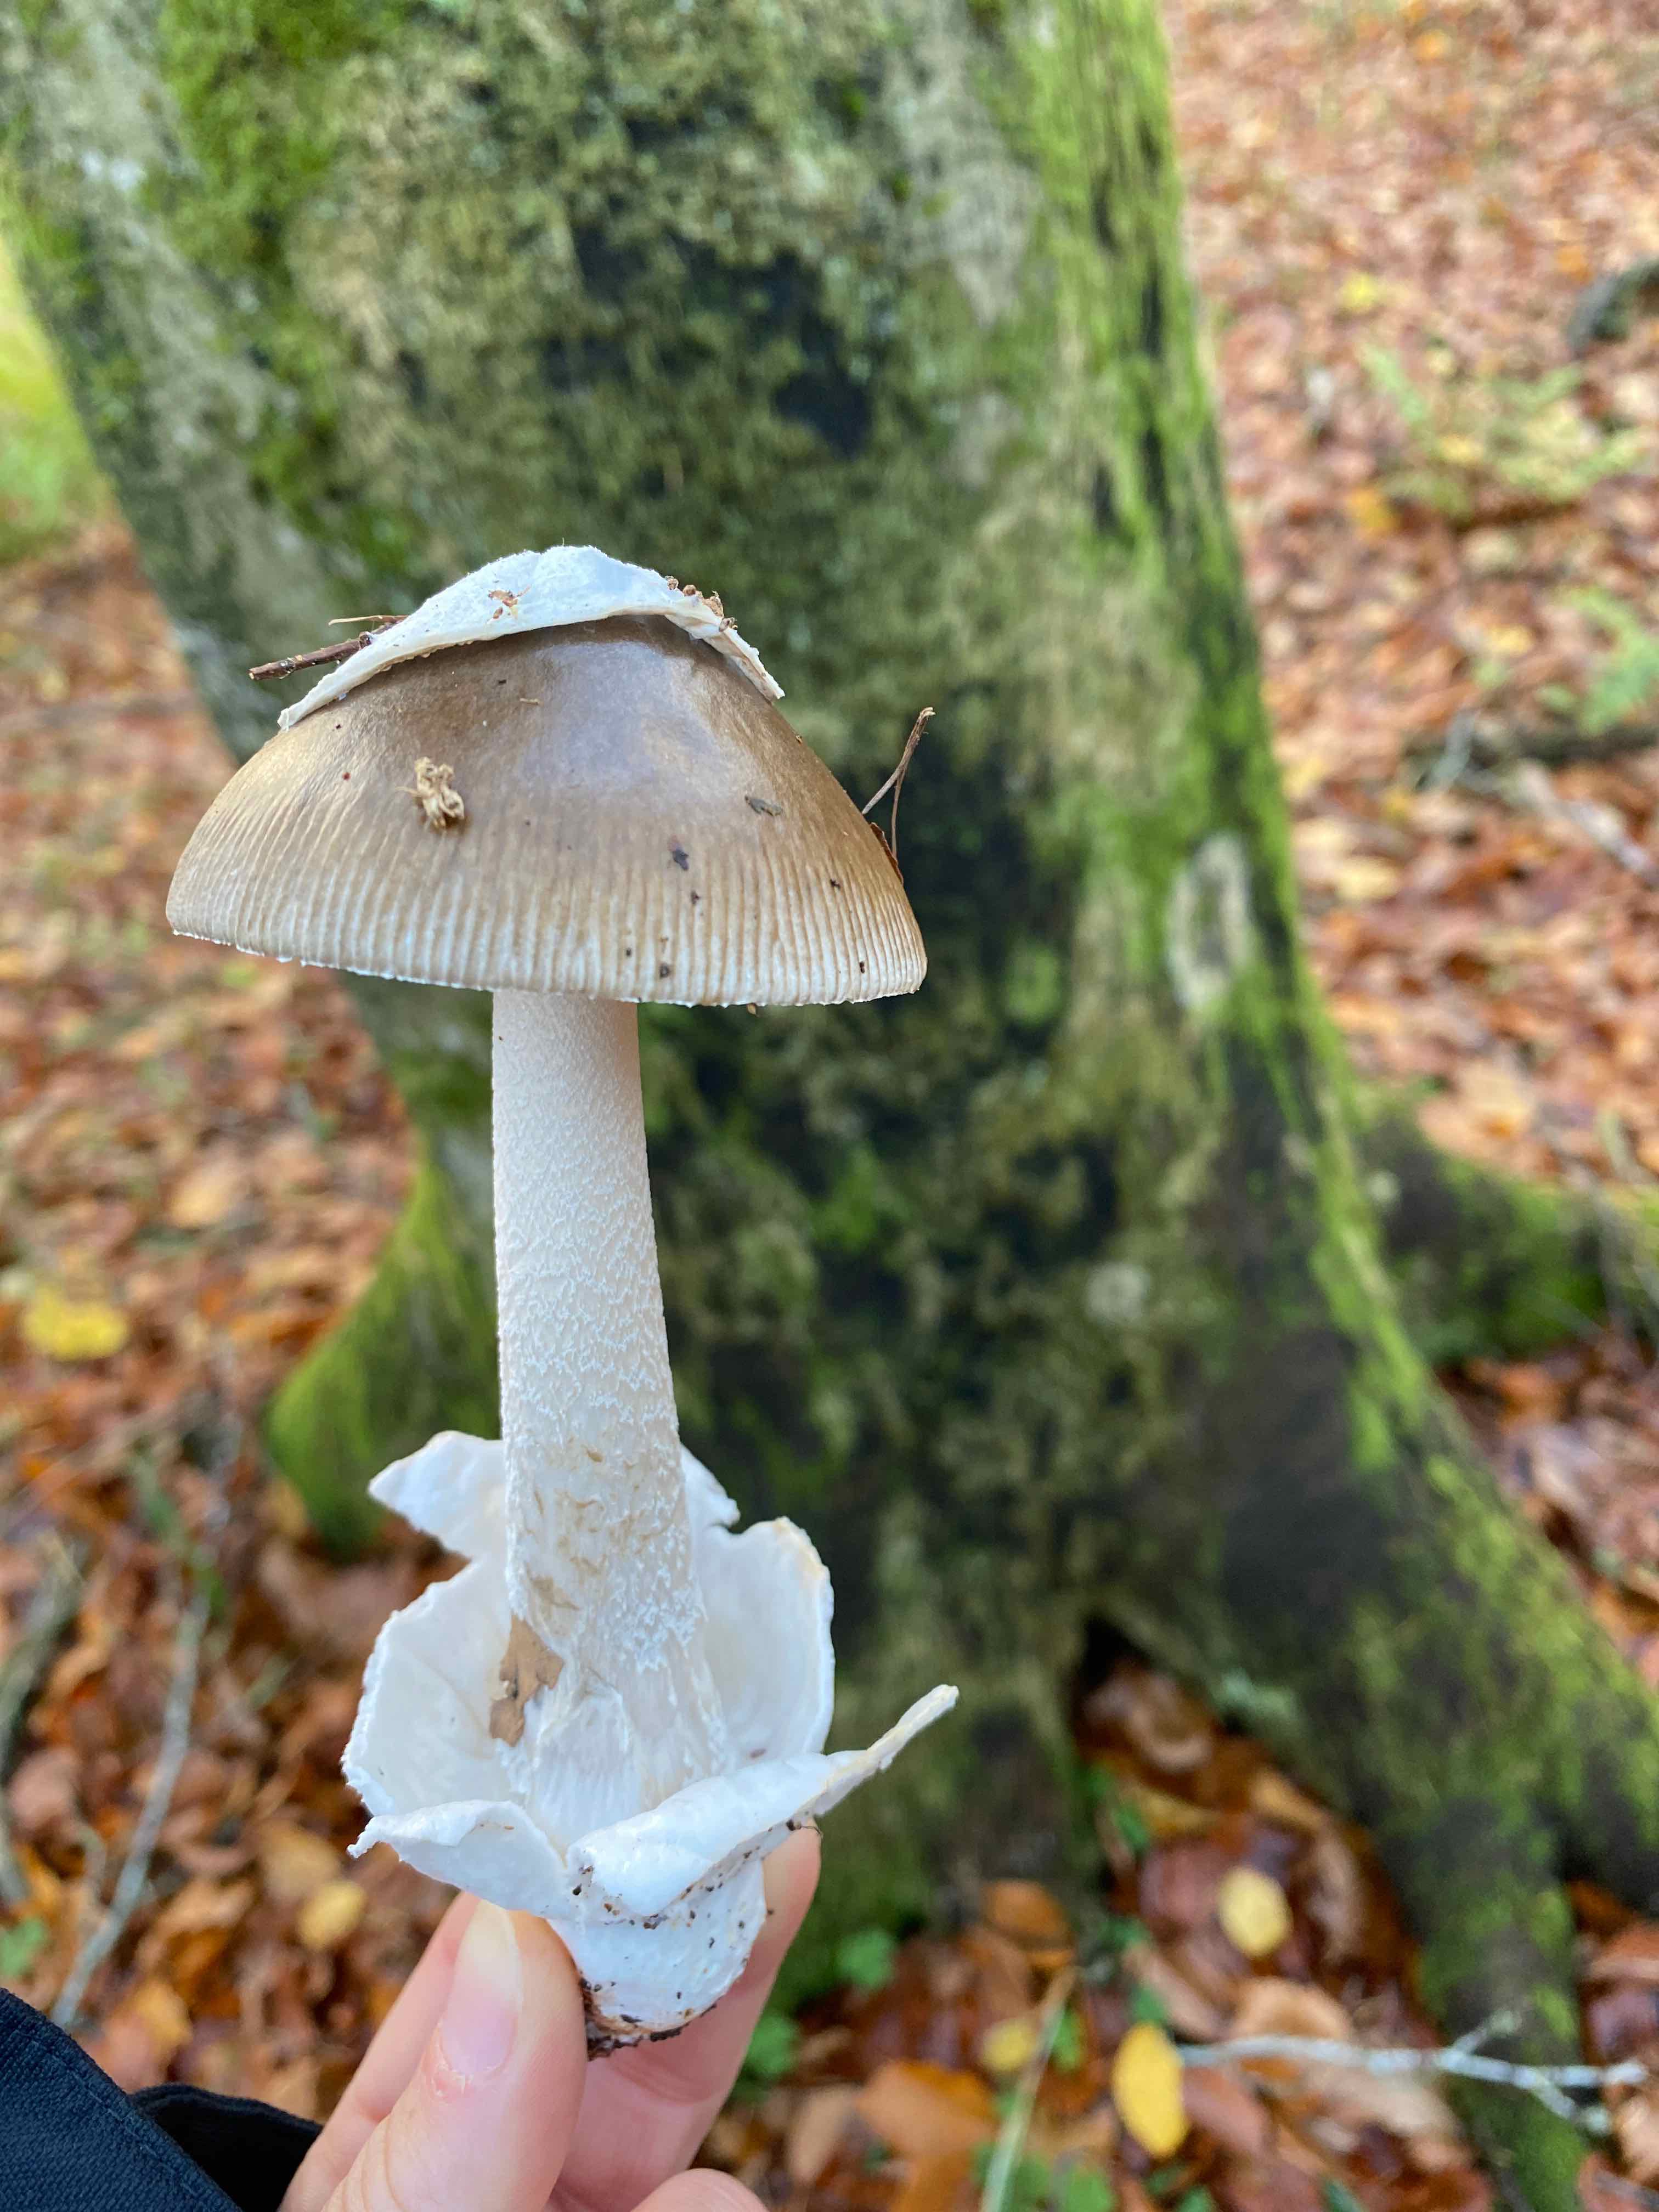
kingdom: Fungi
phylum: Basidiomycota
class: Agaricomycetes
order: Agaricales
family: Amanitaceae
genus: Amanita
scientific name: Amanita
